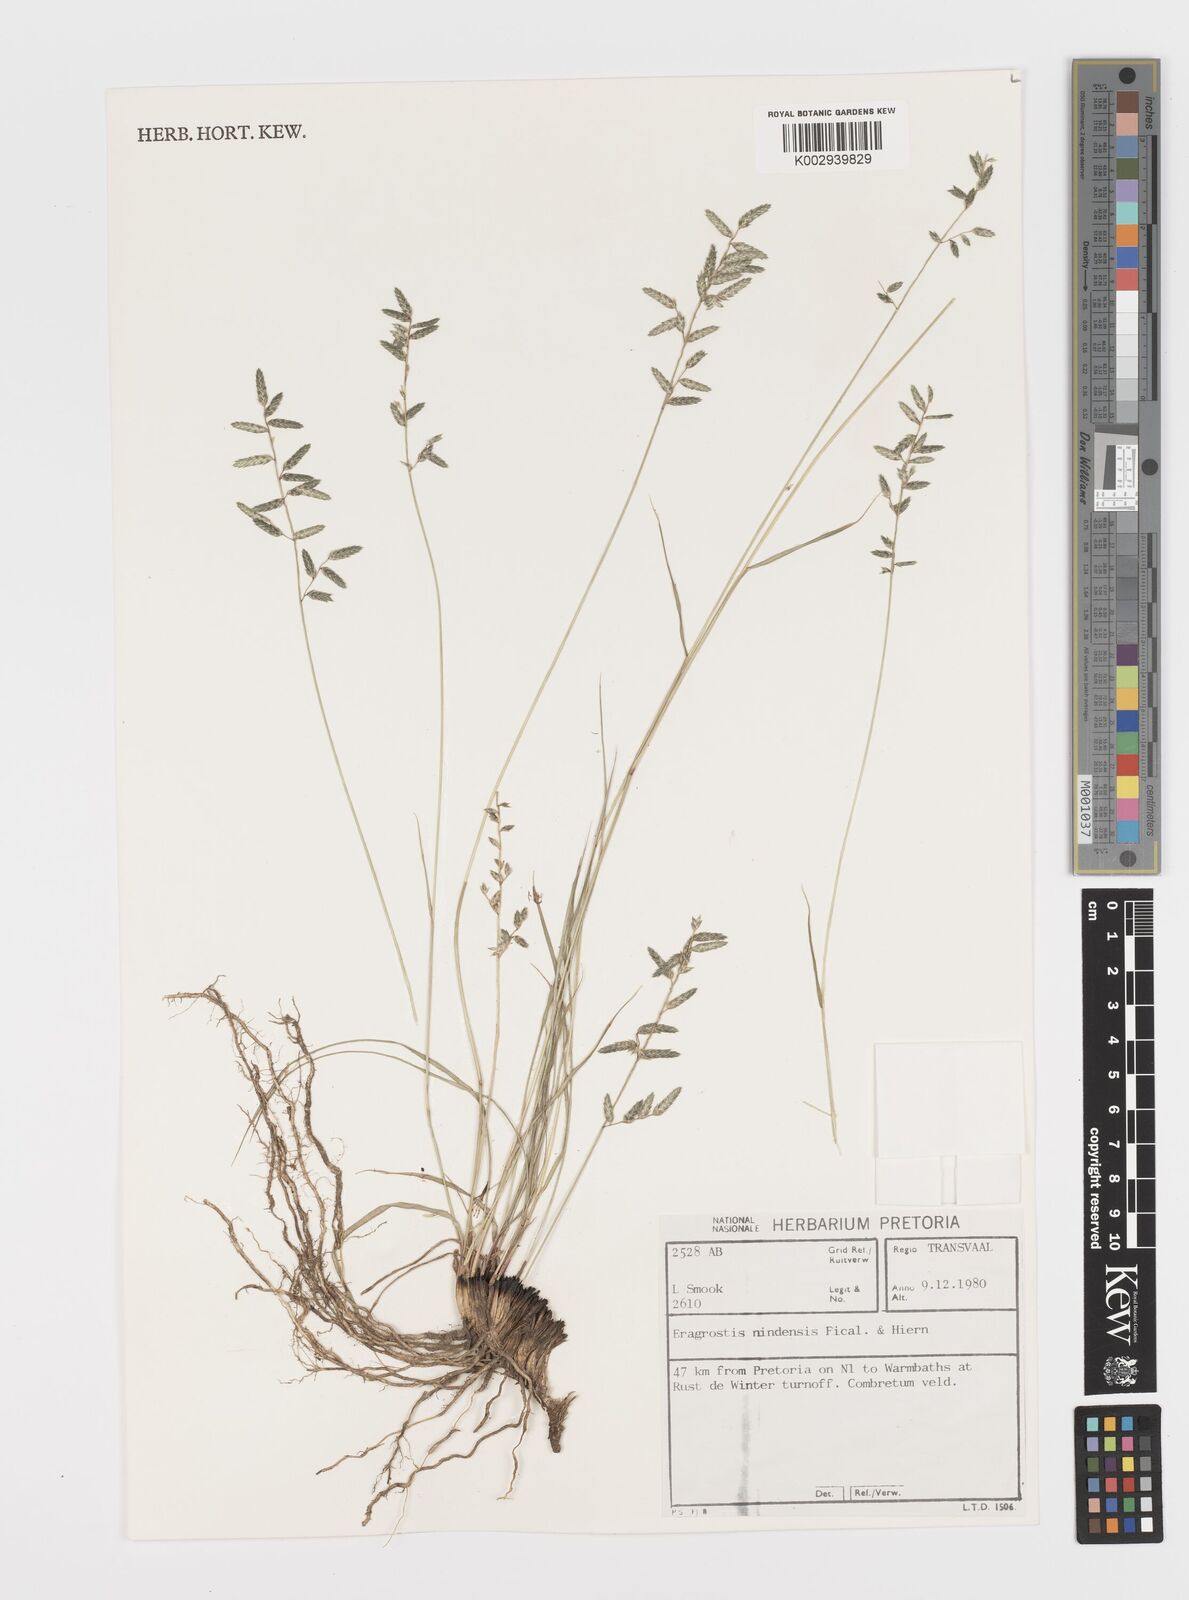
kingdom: Plantae
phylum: Tracheophyta
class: Liliopsida
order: Poales
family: Poaceae
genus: Eragrostis
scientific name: Eragrostis nindensis
